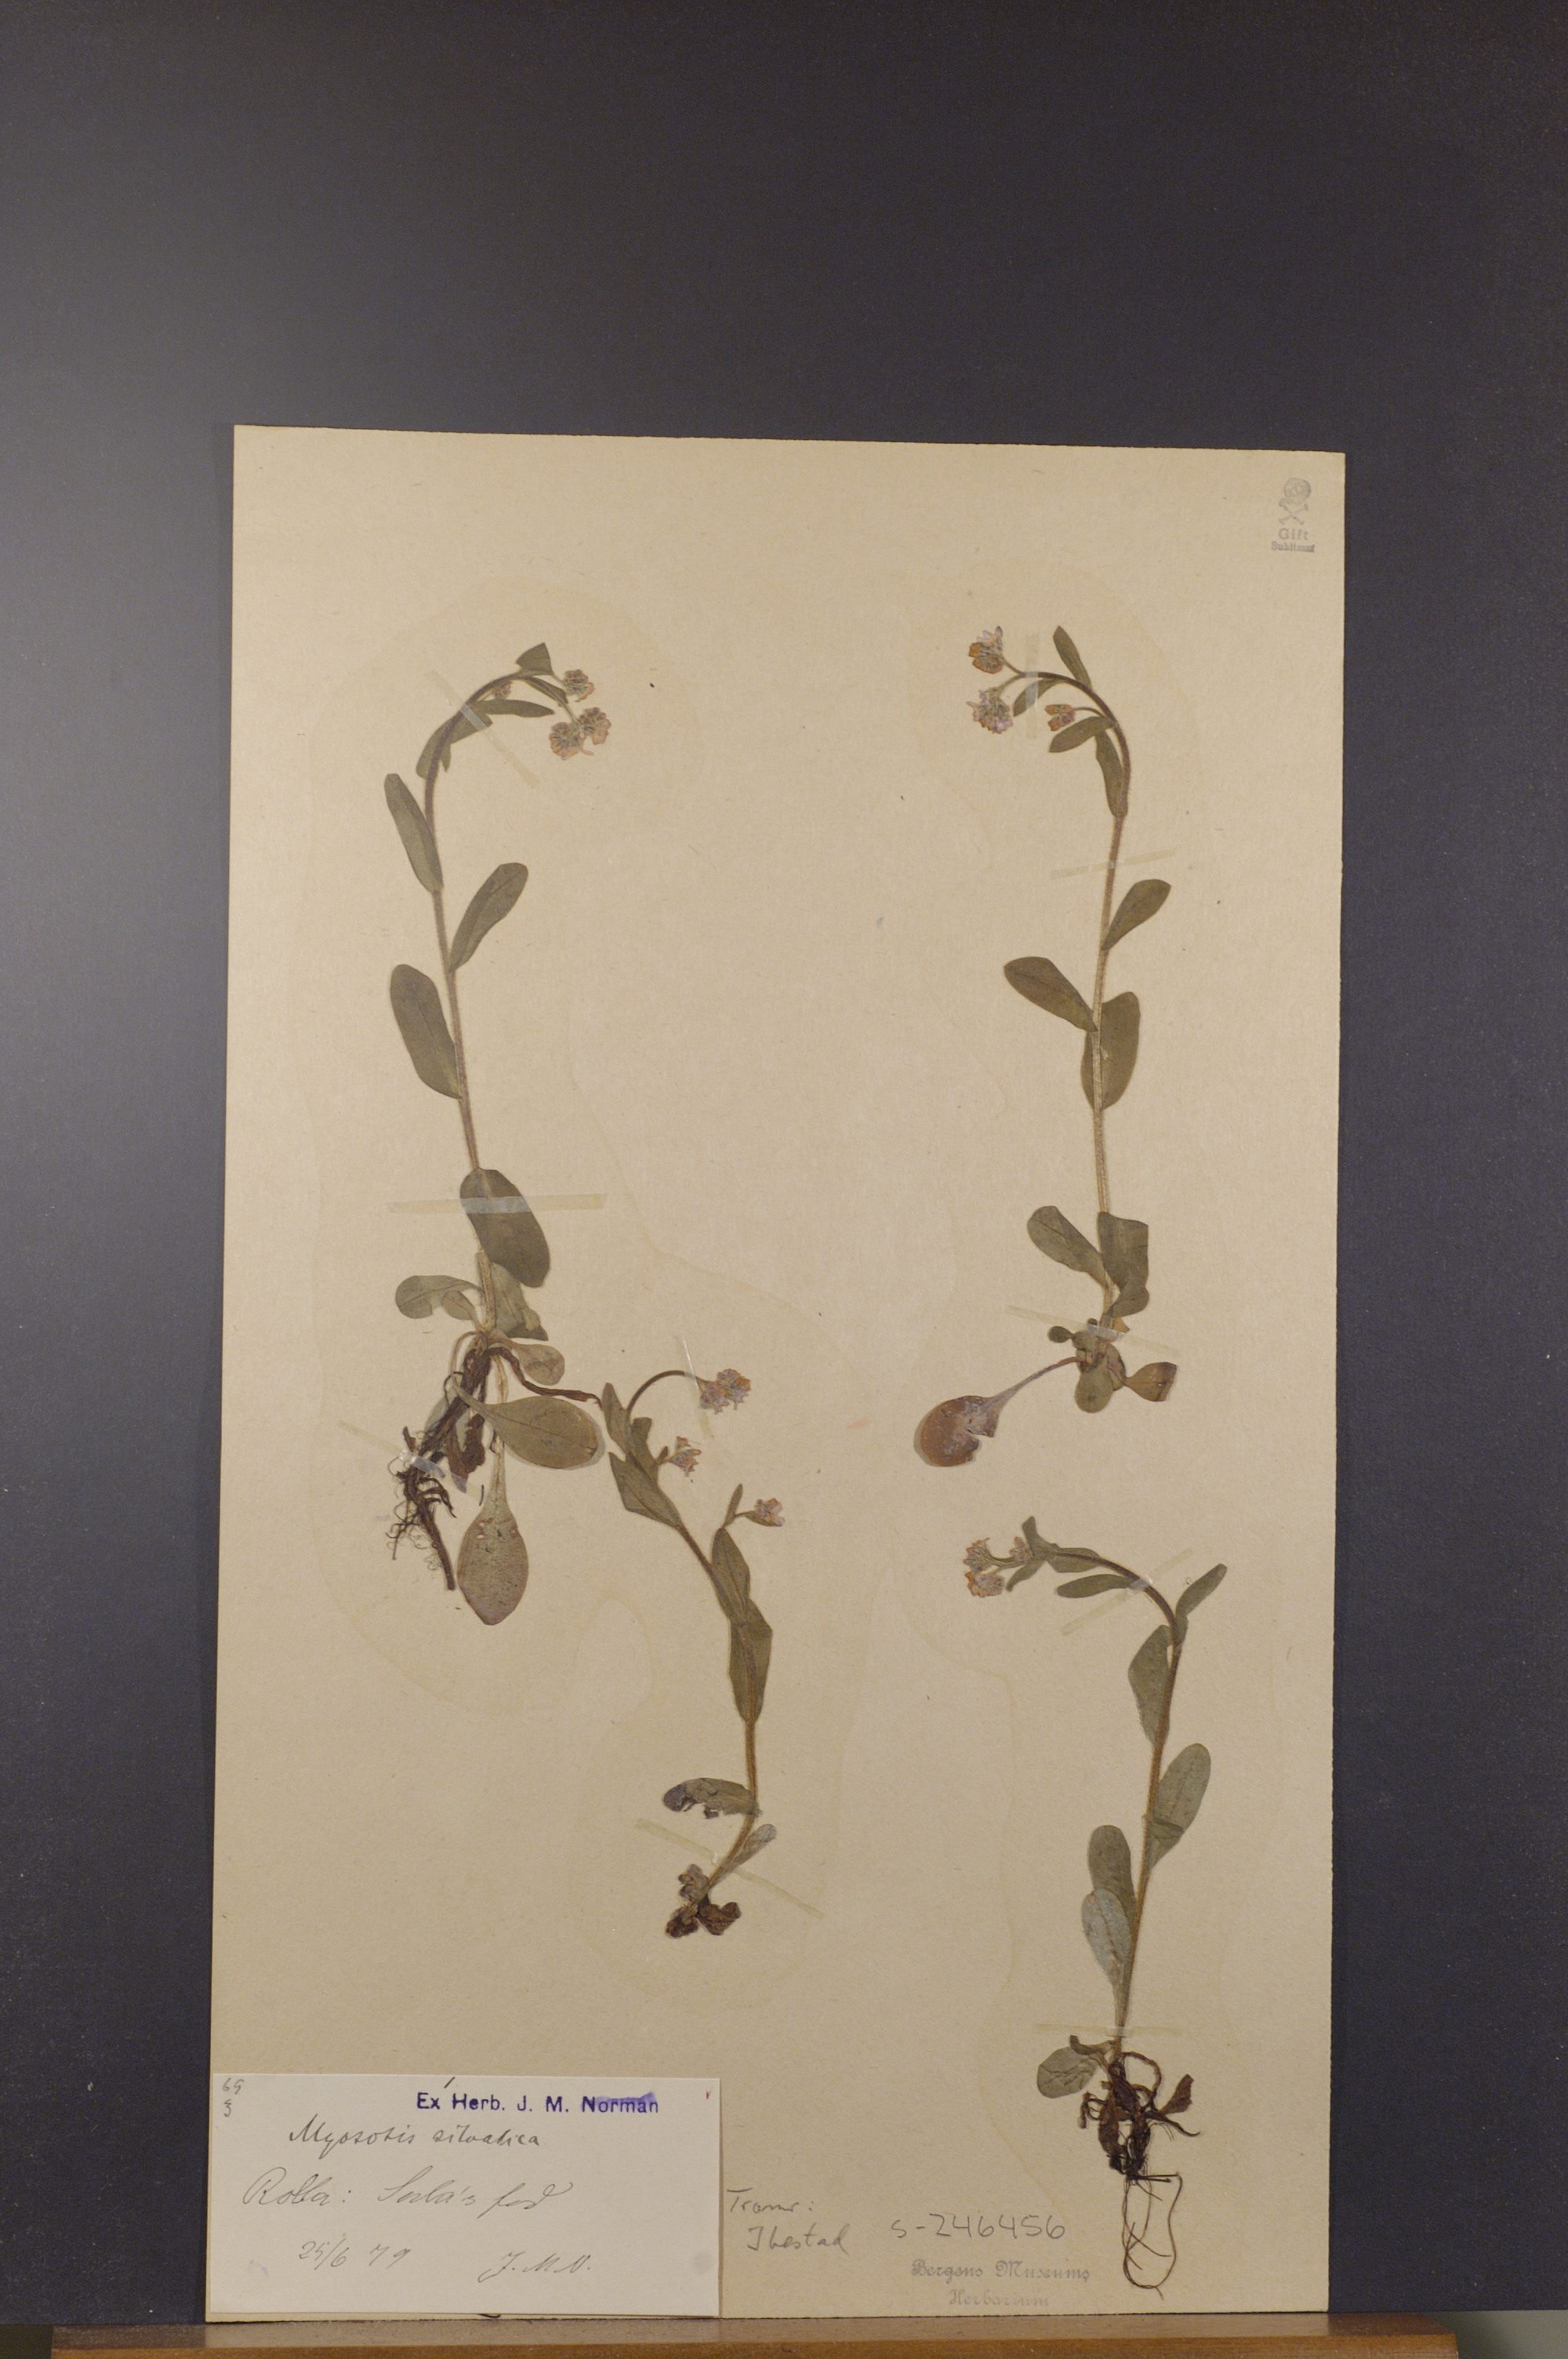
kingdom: Plantae
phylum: Tracheophyta
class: Magnoliopsida
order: Boraginales
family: Boraginaceae
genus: Myosotis
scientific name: Myosotis decumbens
